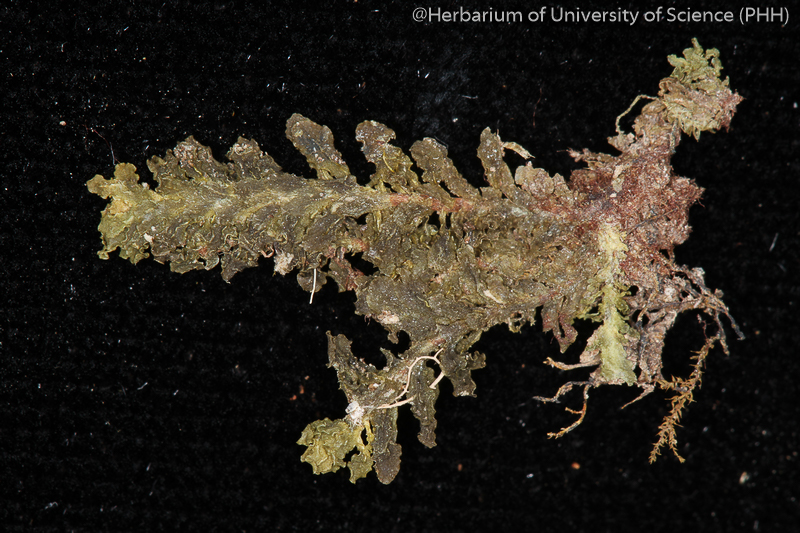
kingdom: Plantae
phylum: Bryophyta
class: Bryopsida
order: Hookeriales
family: Daltoniaceae
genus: Distichophyllum
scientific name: Distichophyllum osterwaldii
